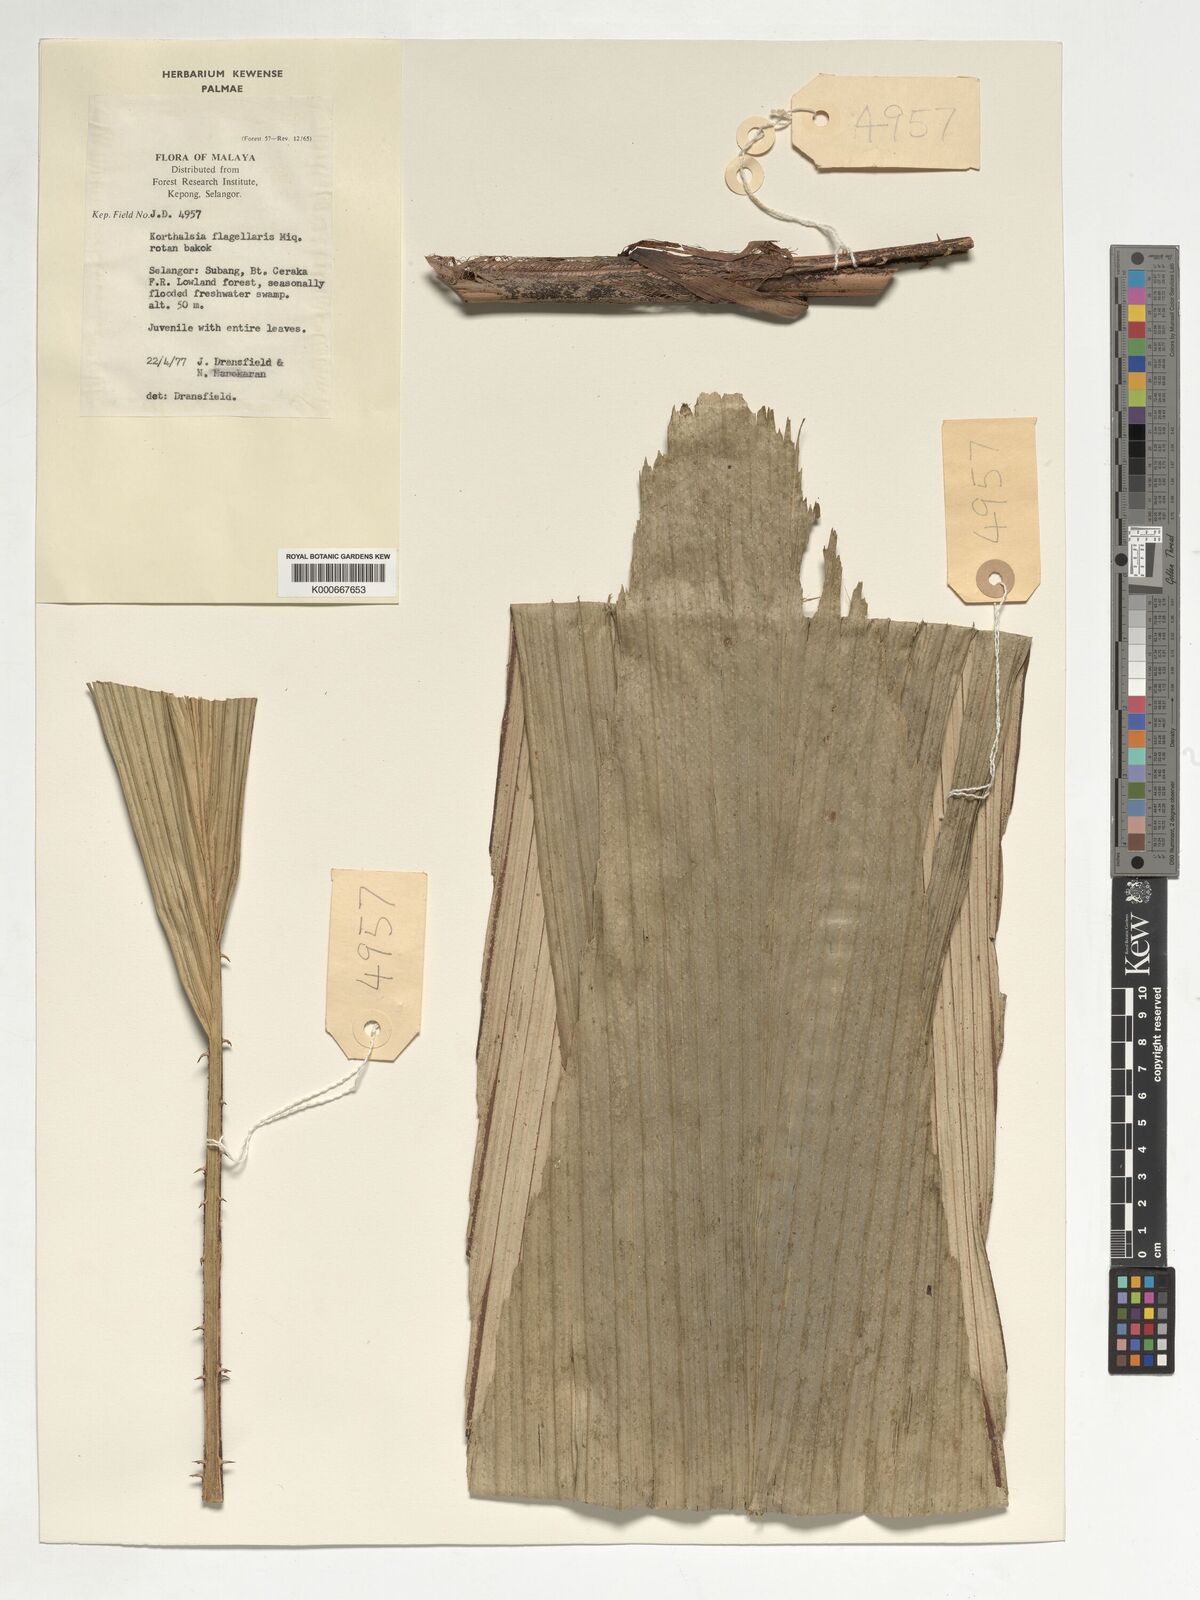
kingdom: Plantae
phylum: Tracheophyta
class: Liliopsida
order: Arecales
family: Arecaceae
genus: Korthalsia
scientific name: Korthalsia flagellaris
